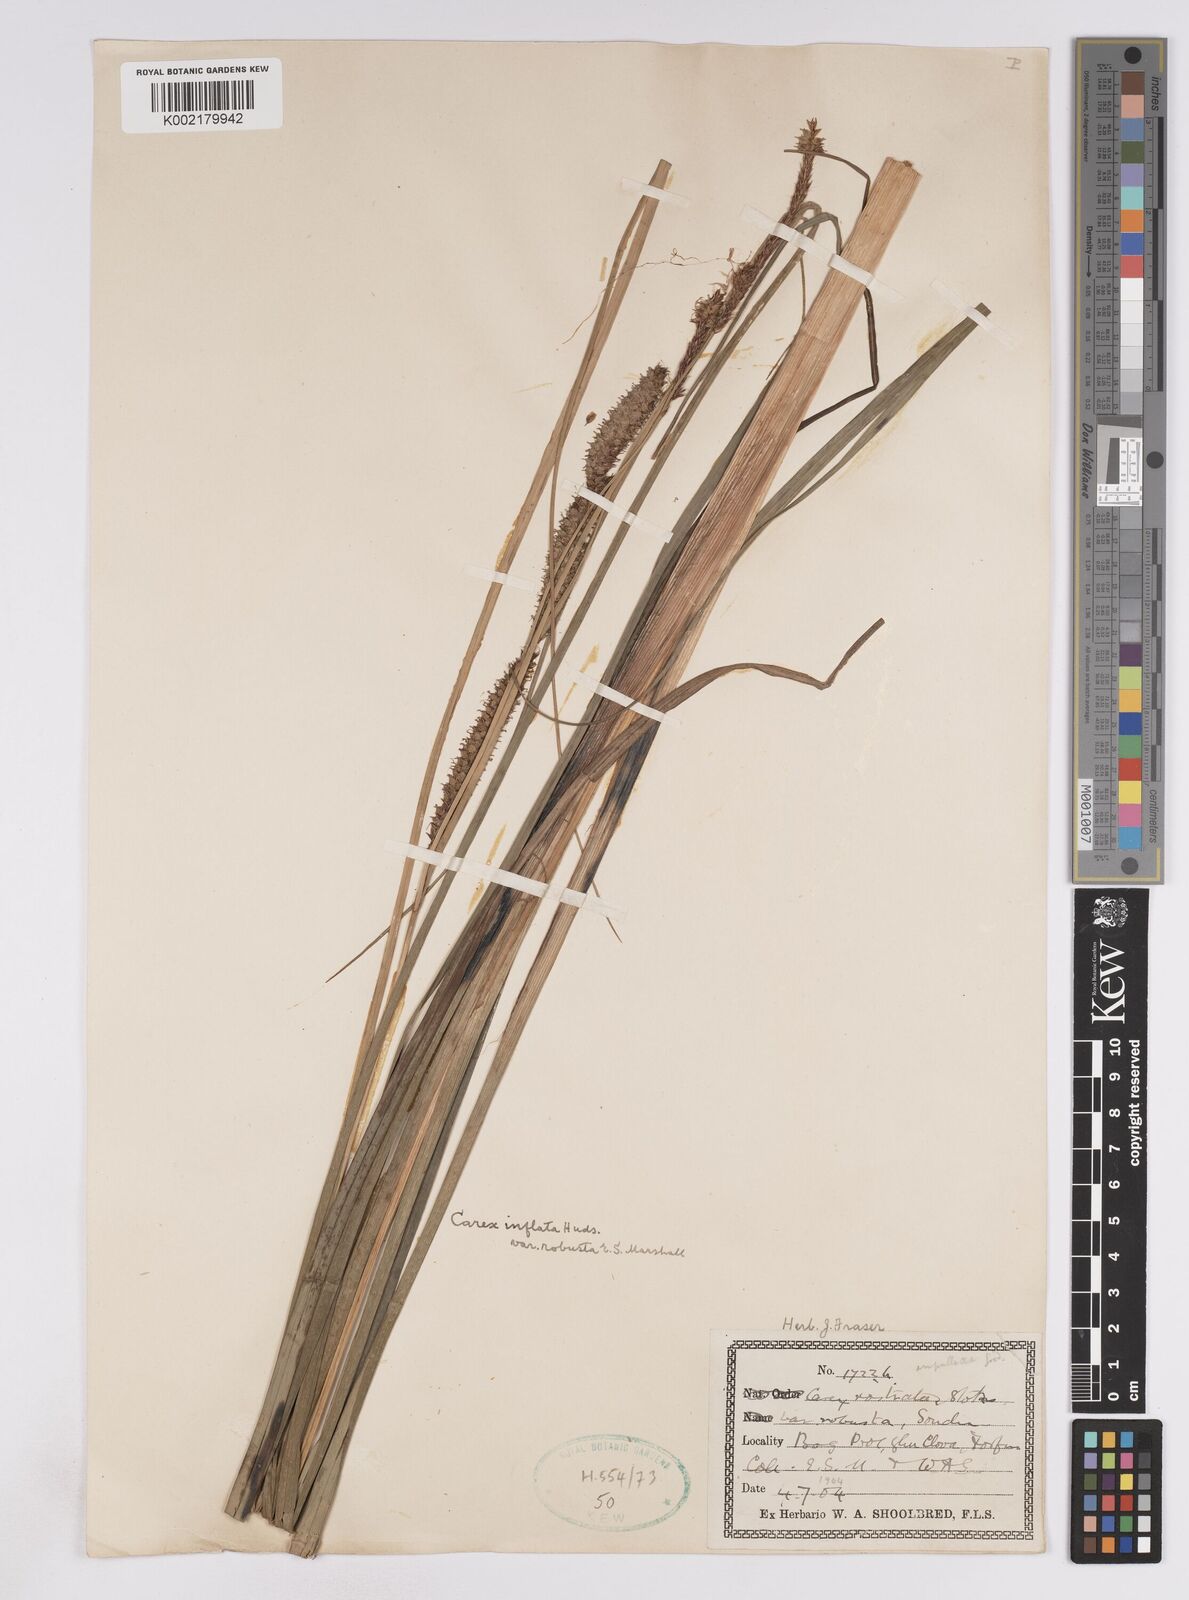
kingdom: Plantae
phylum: Tracheophyta
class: Liliopsida
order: Poales
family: Cyperaceae
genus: Carex
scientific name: Carex utriculata
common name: Beaked sedge
